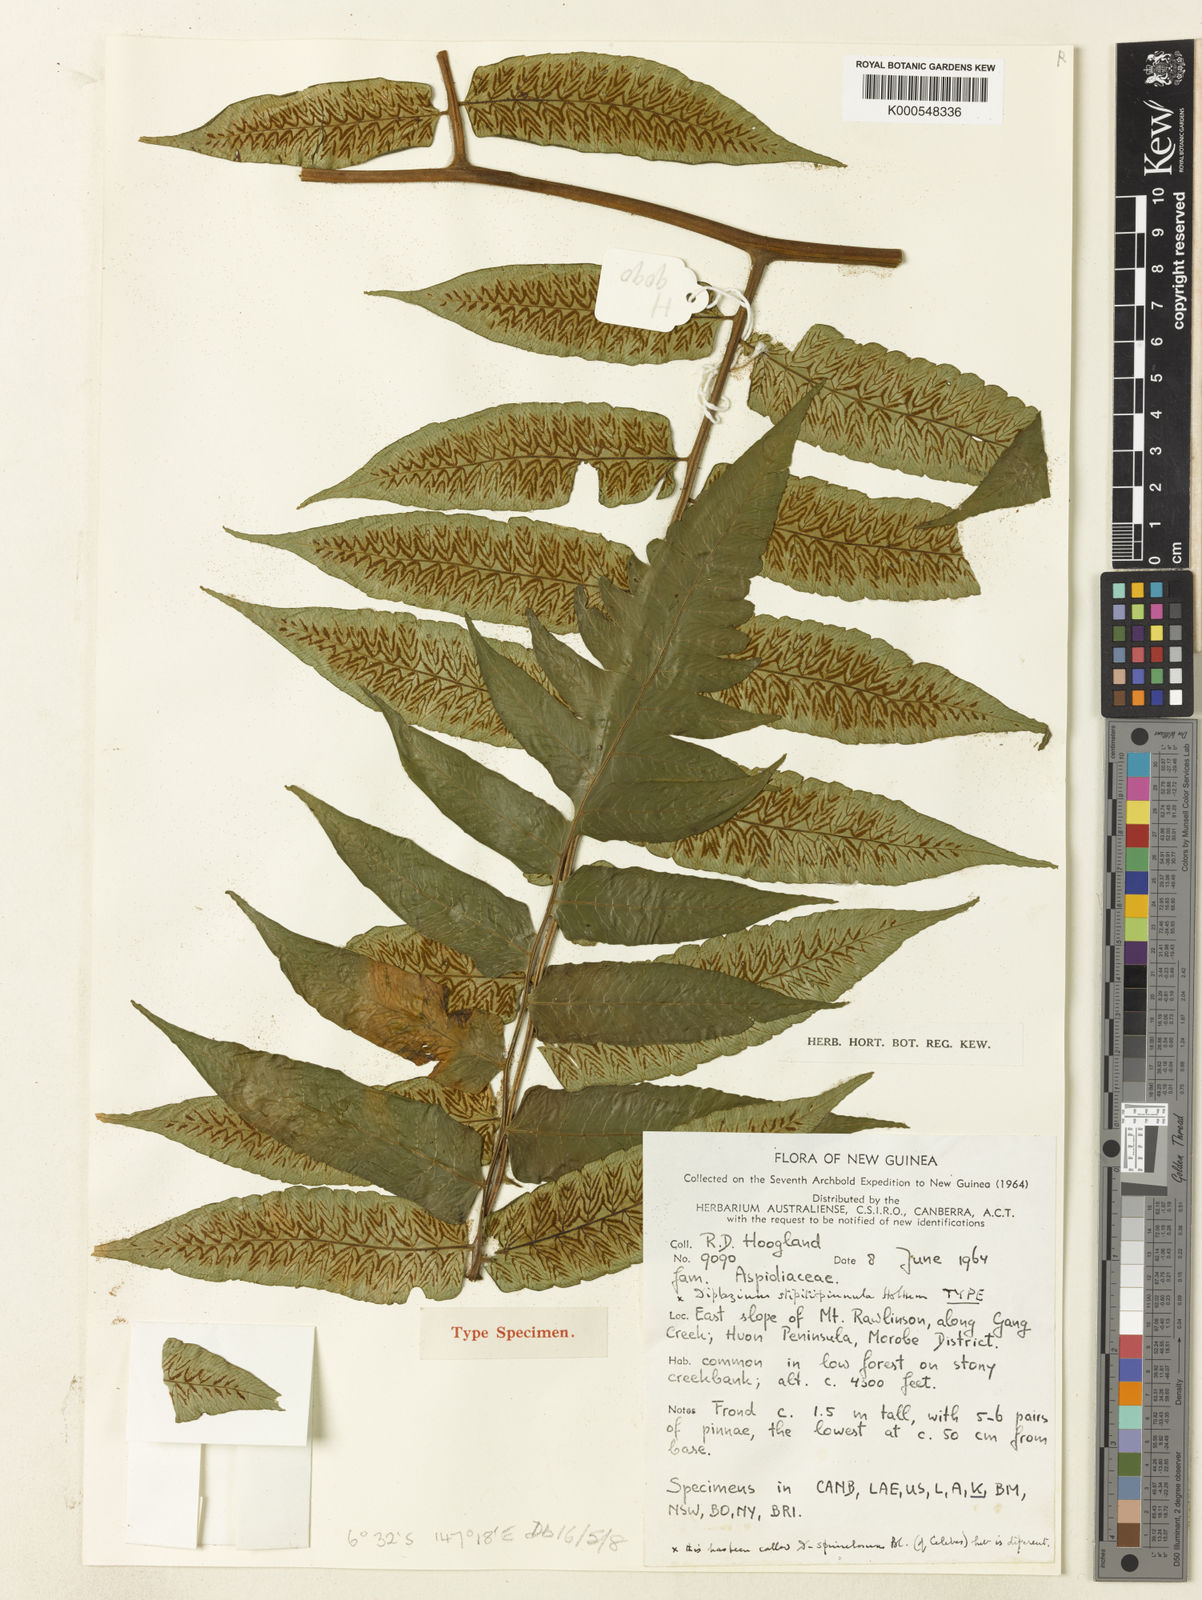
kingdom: Plantae
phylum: Tracheophyta
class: Polypodiopsida
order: Polypodiales
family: Athyriaceae
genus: Diplazium
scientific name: Diplazium stipitipinnula
